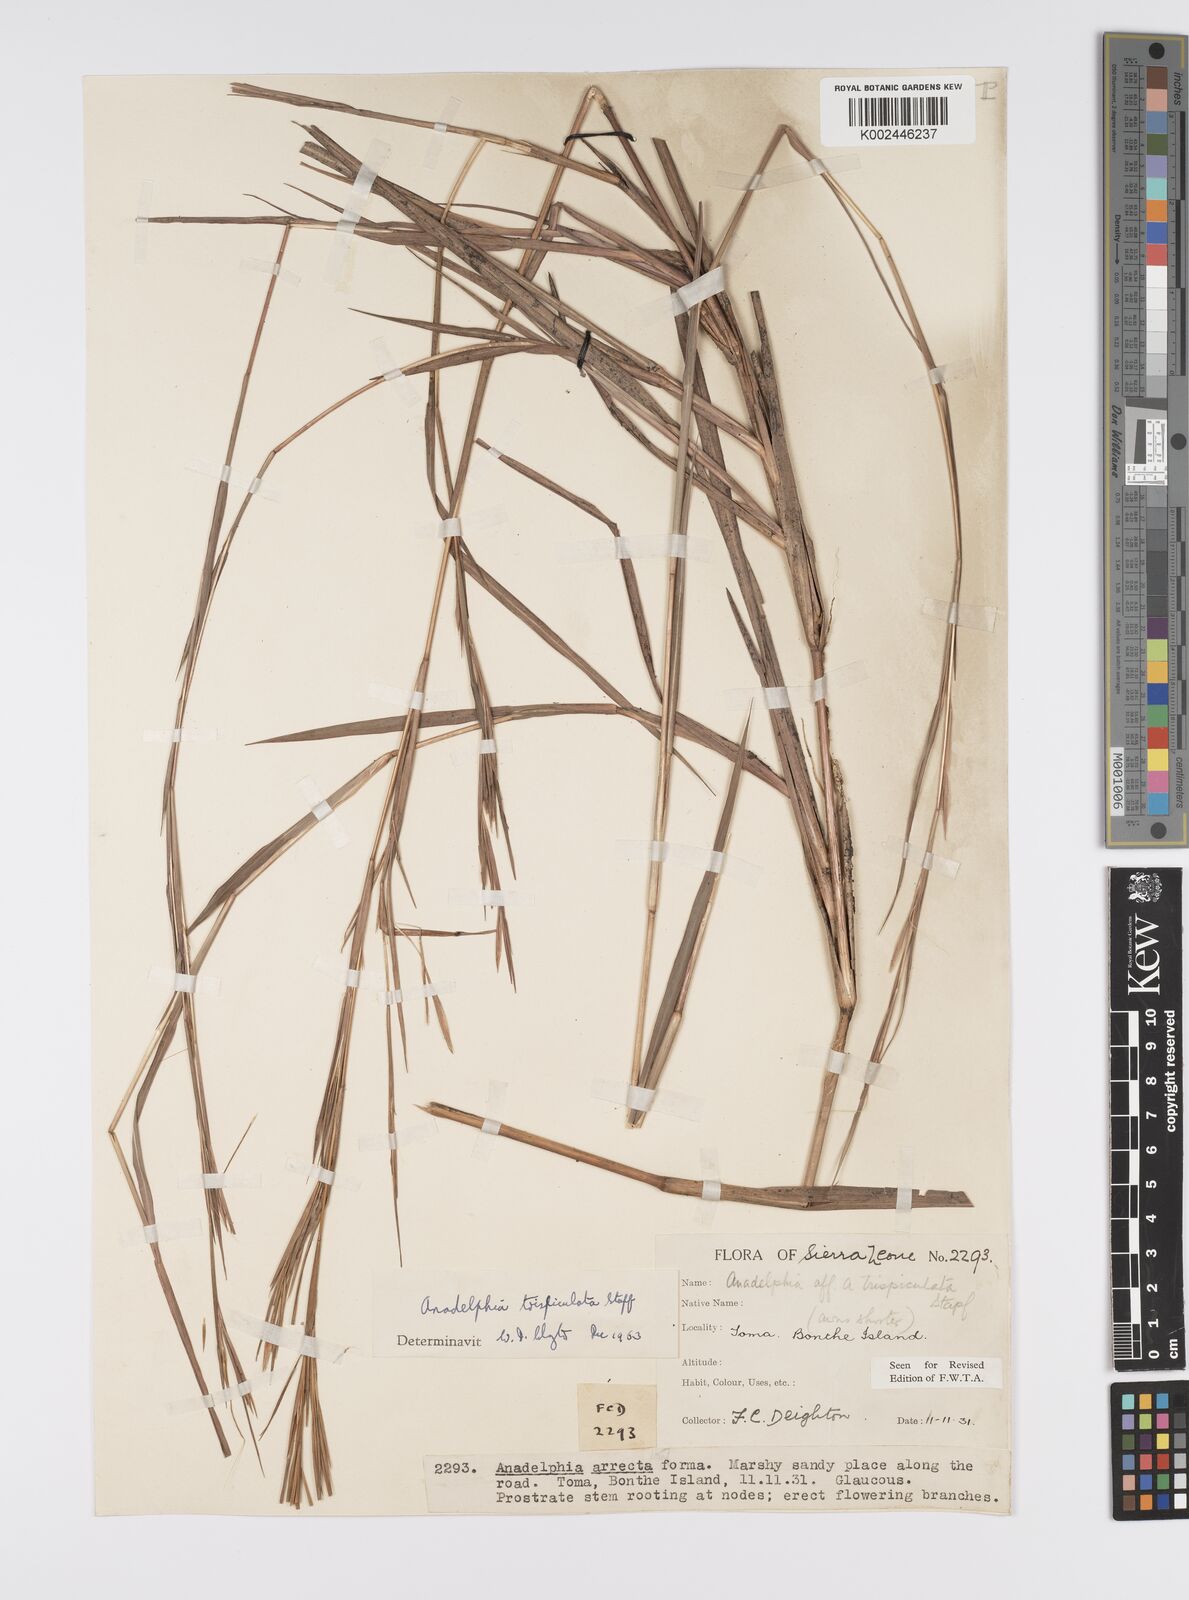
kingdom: Plantae
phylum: Tracheophyta
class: Liliopsida
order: Poales
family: Poaceae
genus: Anadelphia
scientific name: Anadelphia trispiculata
